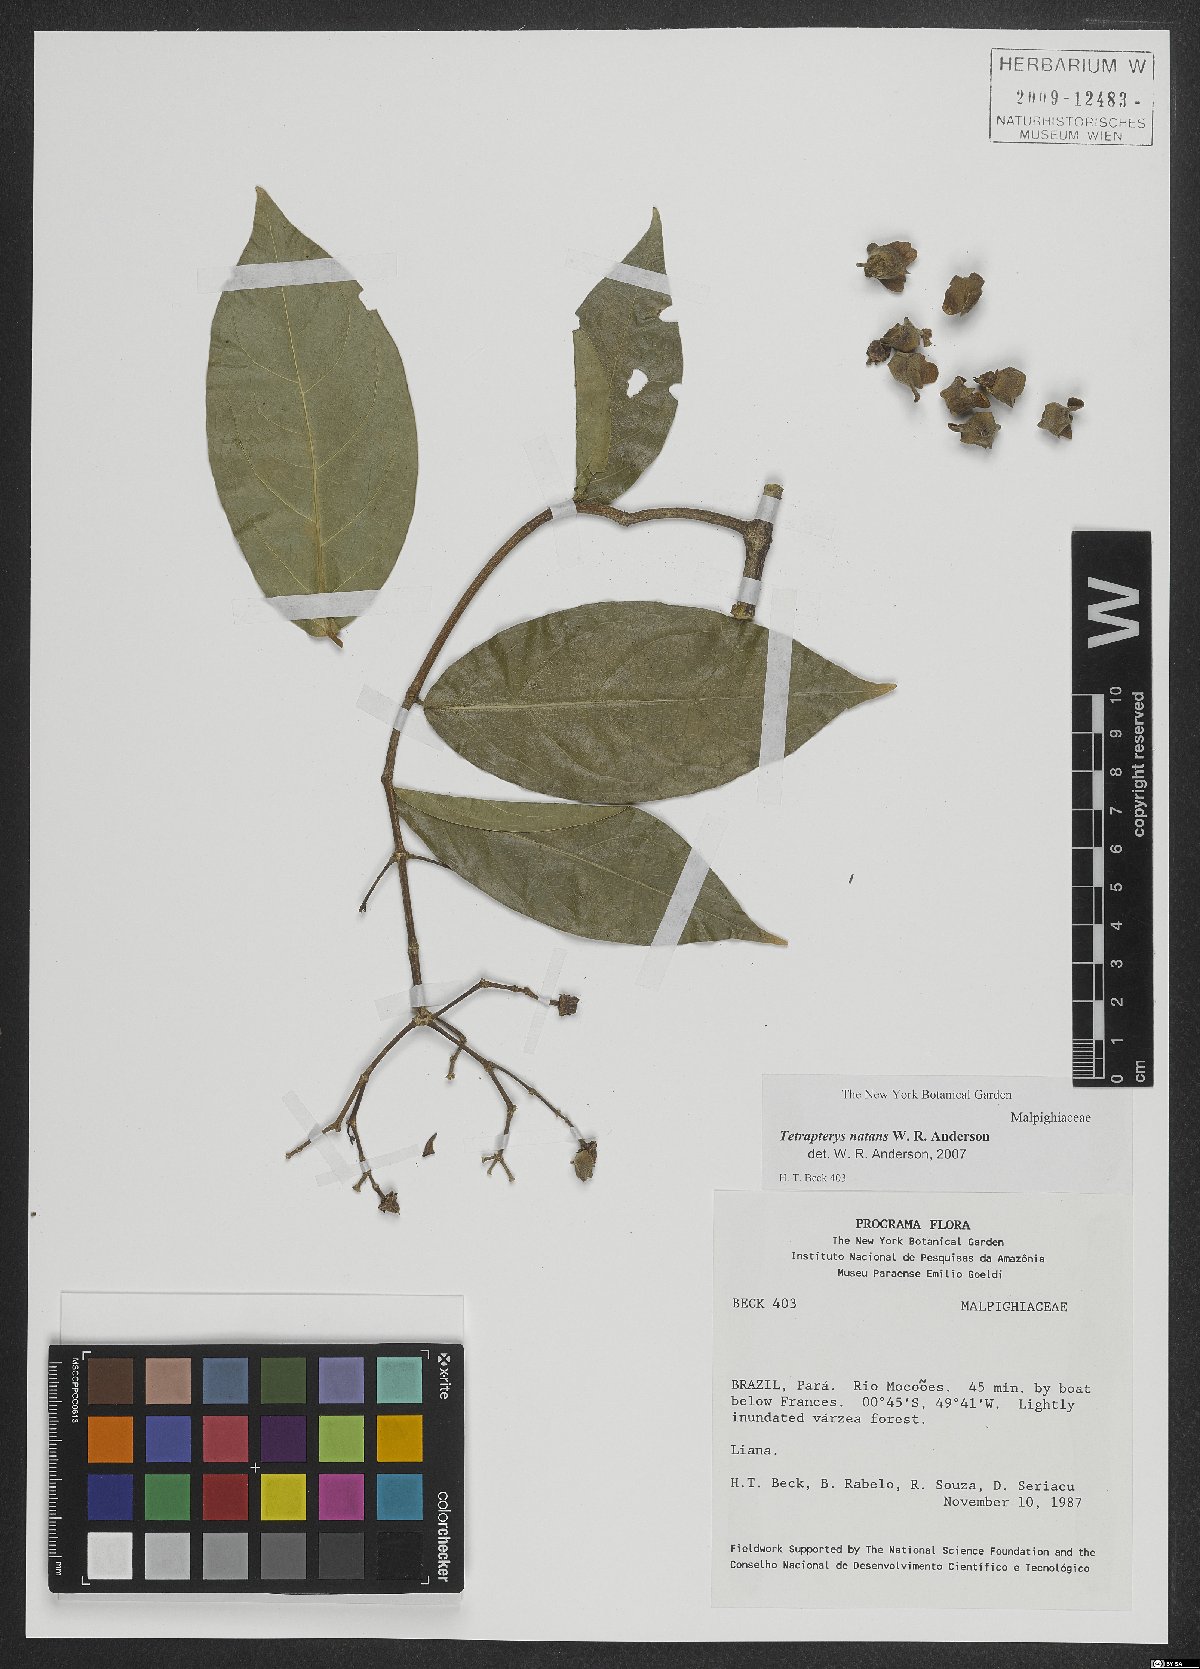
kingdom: Plantae
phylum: Tracheophyta
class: Magnoliopsida
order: Malpighiales
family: Malpighiaceae
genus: Tetrapterys
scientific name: Tetrapterys natans
